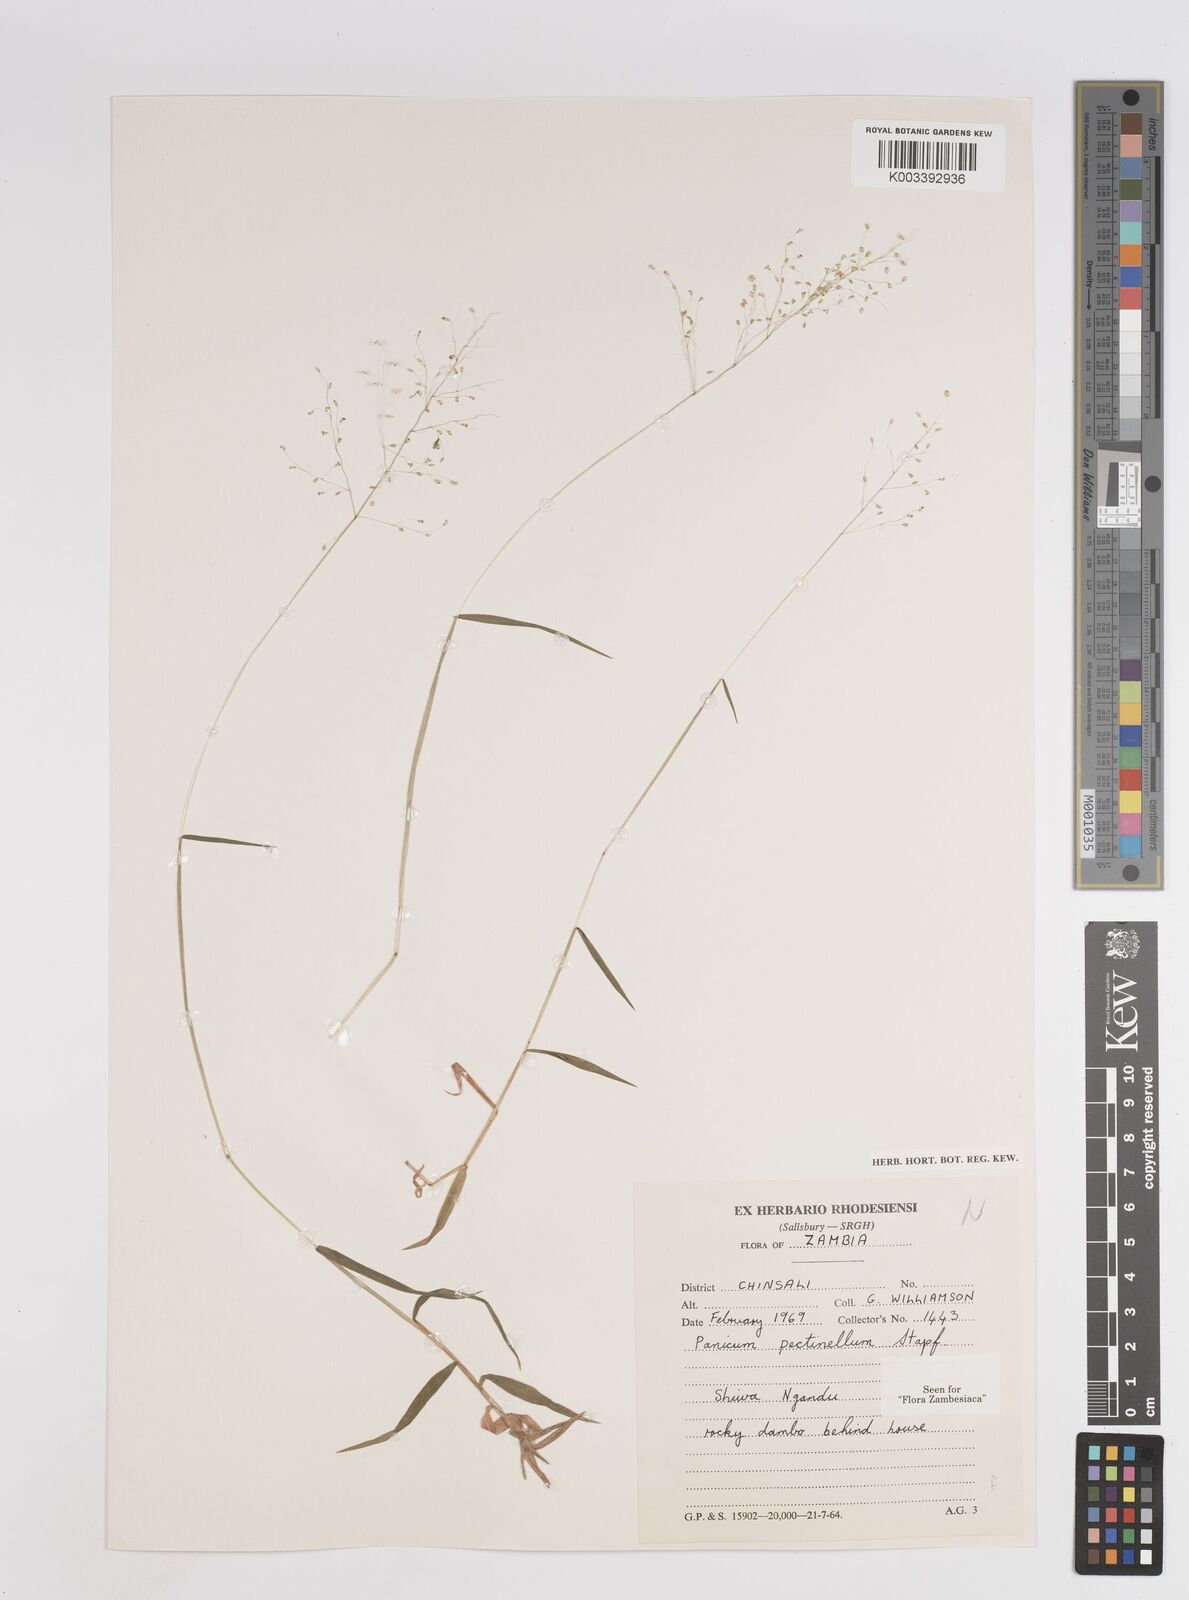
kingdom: Plantae
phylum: Tracheophyta
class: Liliopsida
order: Poales
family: Poaceae
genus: Adenochloa
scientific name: Adenochloa pectinella
